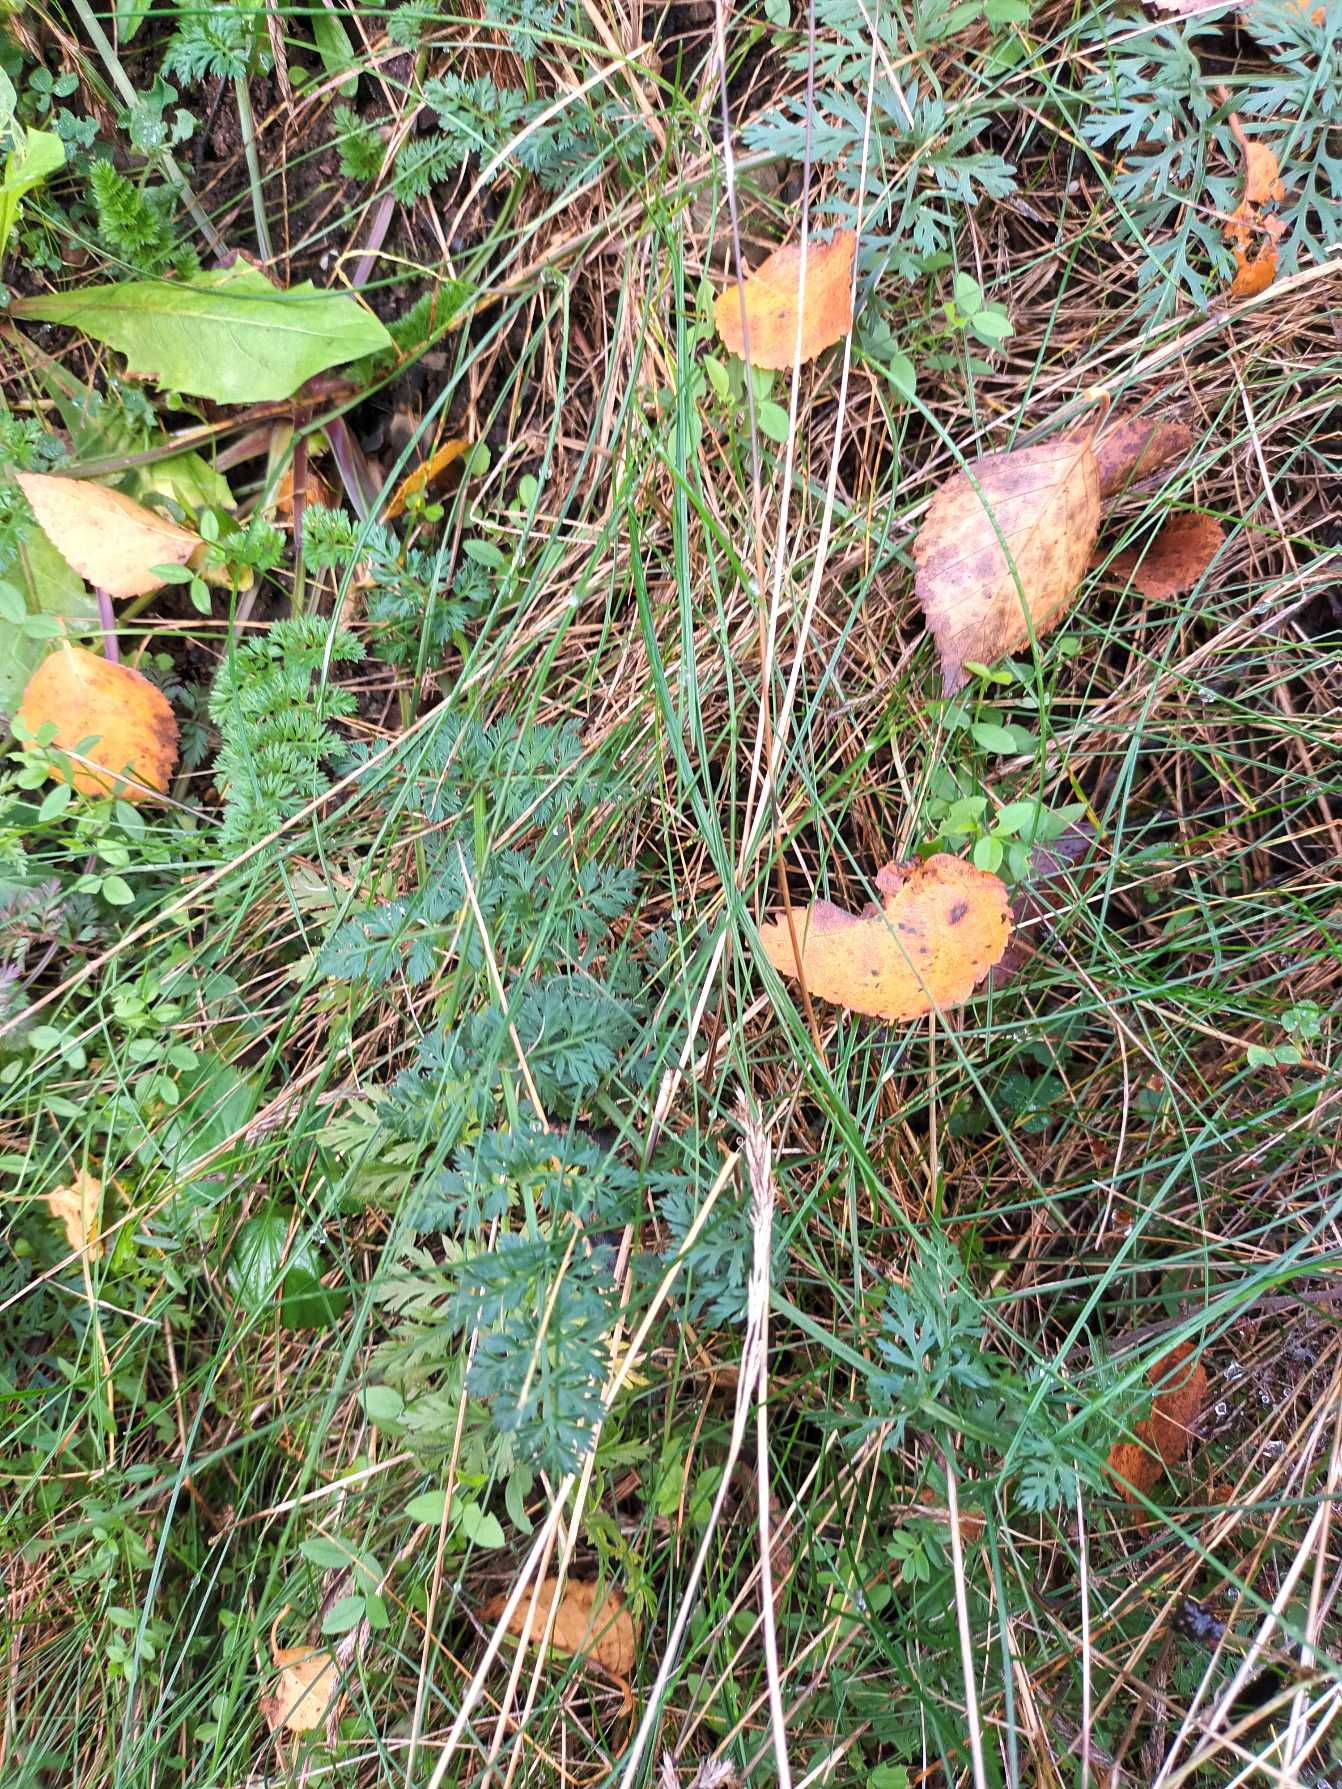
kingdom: Plantae
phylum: Tracheophyta
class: Magnoliopsida
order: Apiales
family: Apiaceae
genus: Daucus
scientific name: Daucus carota
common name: Gulerod
